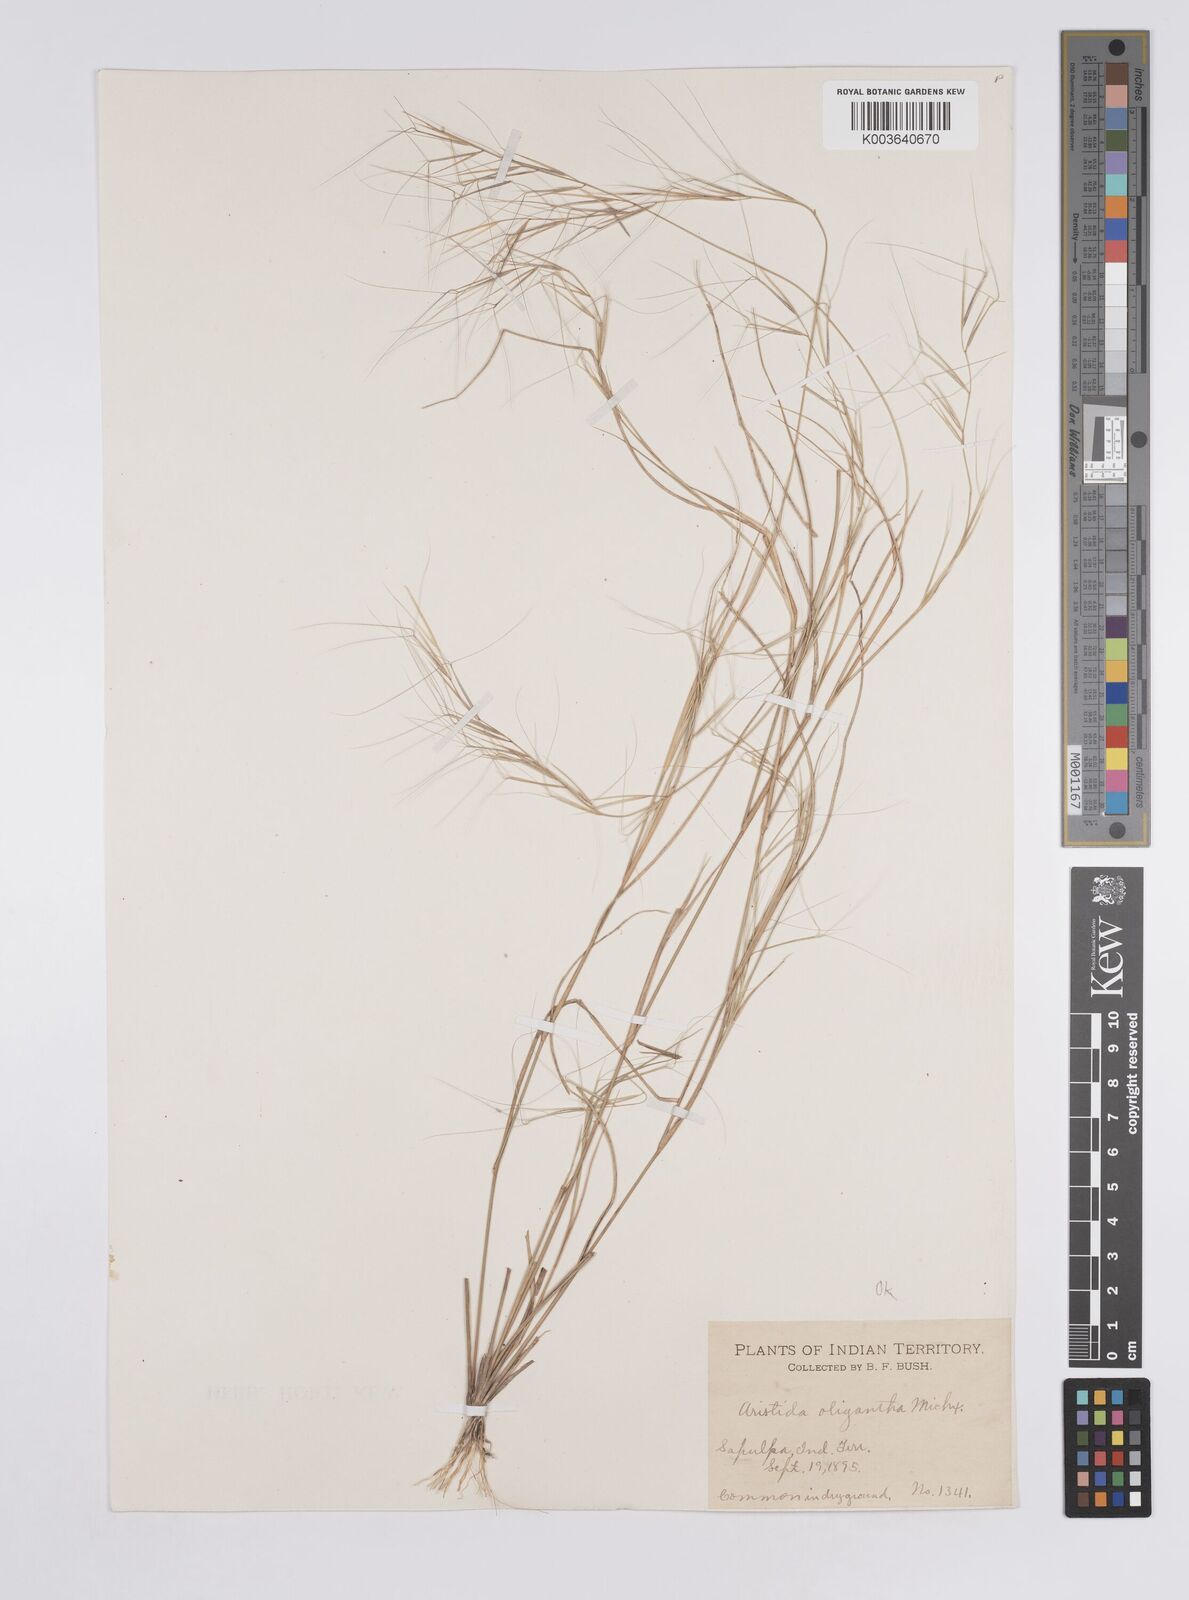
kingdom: Plantae
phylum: Tracheophyta
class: Liliopsida
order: Poales
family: Poaceae
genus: Aristida
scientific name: Aristida oligantha
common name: Few-flowered aristida
